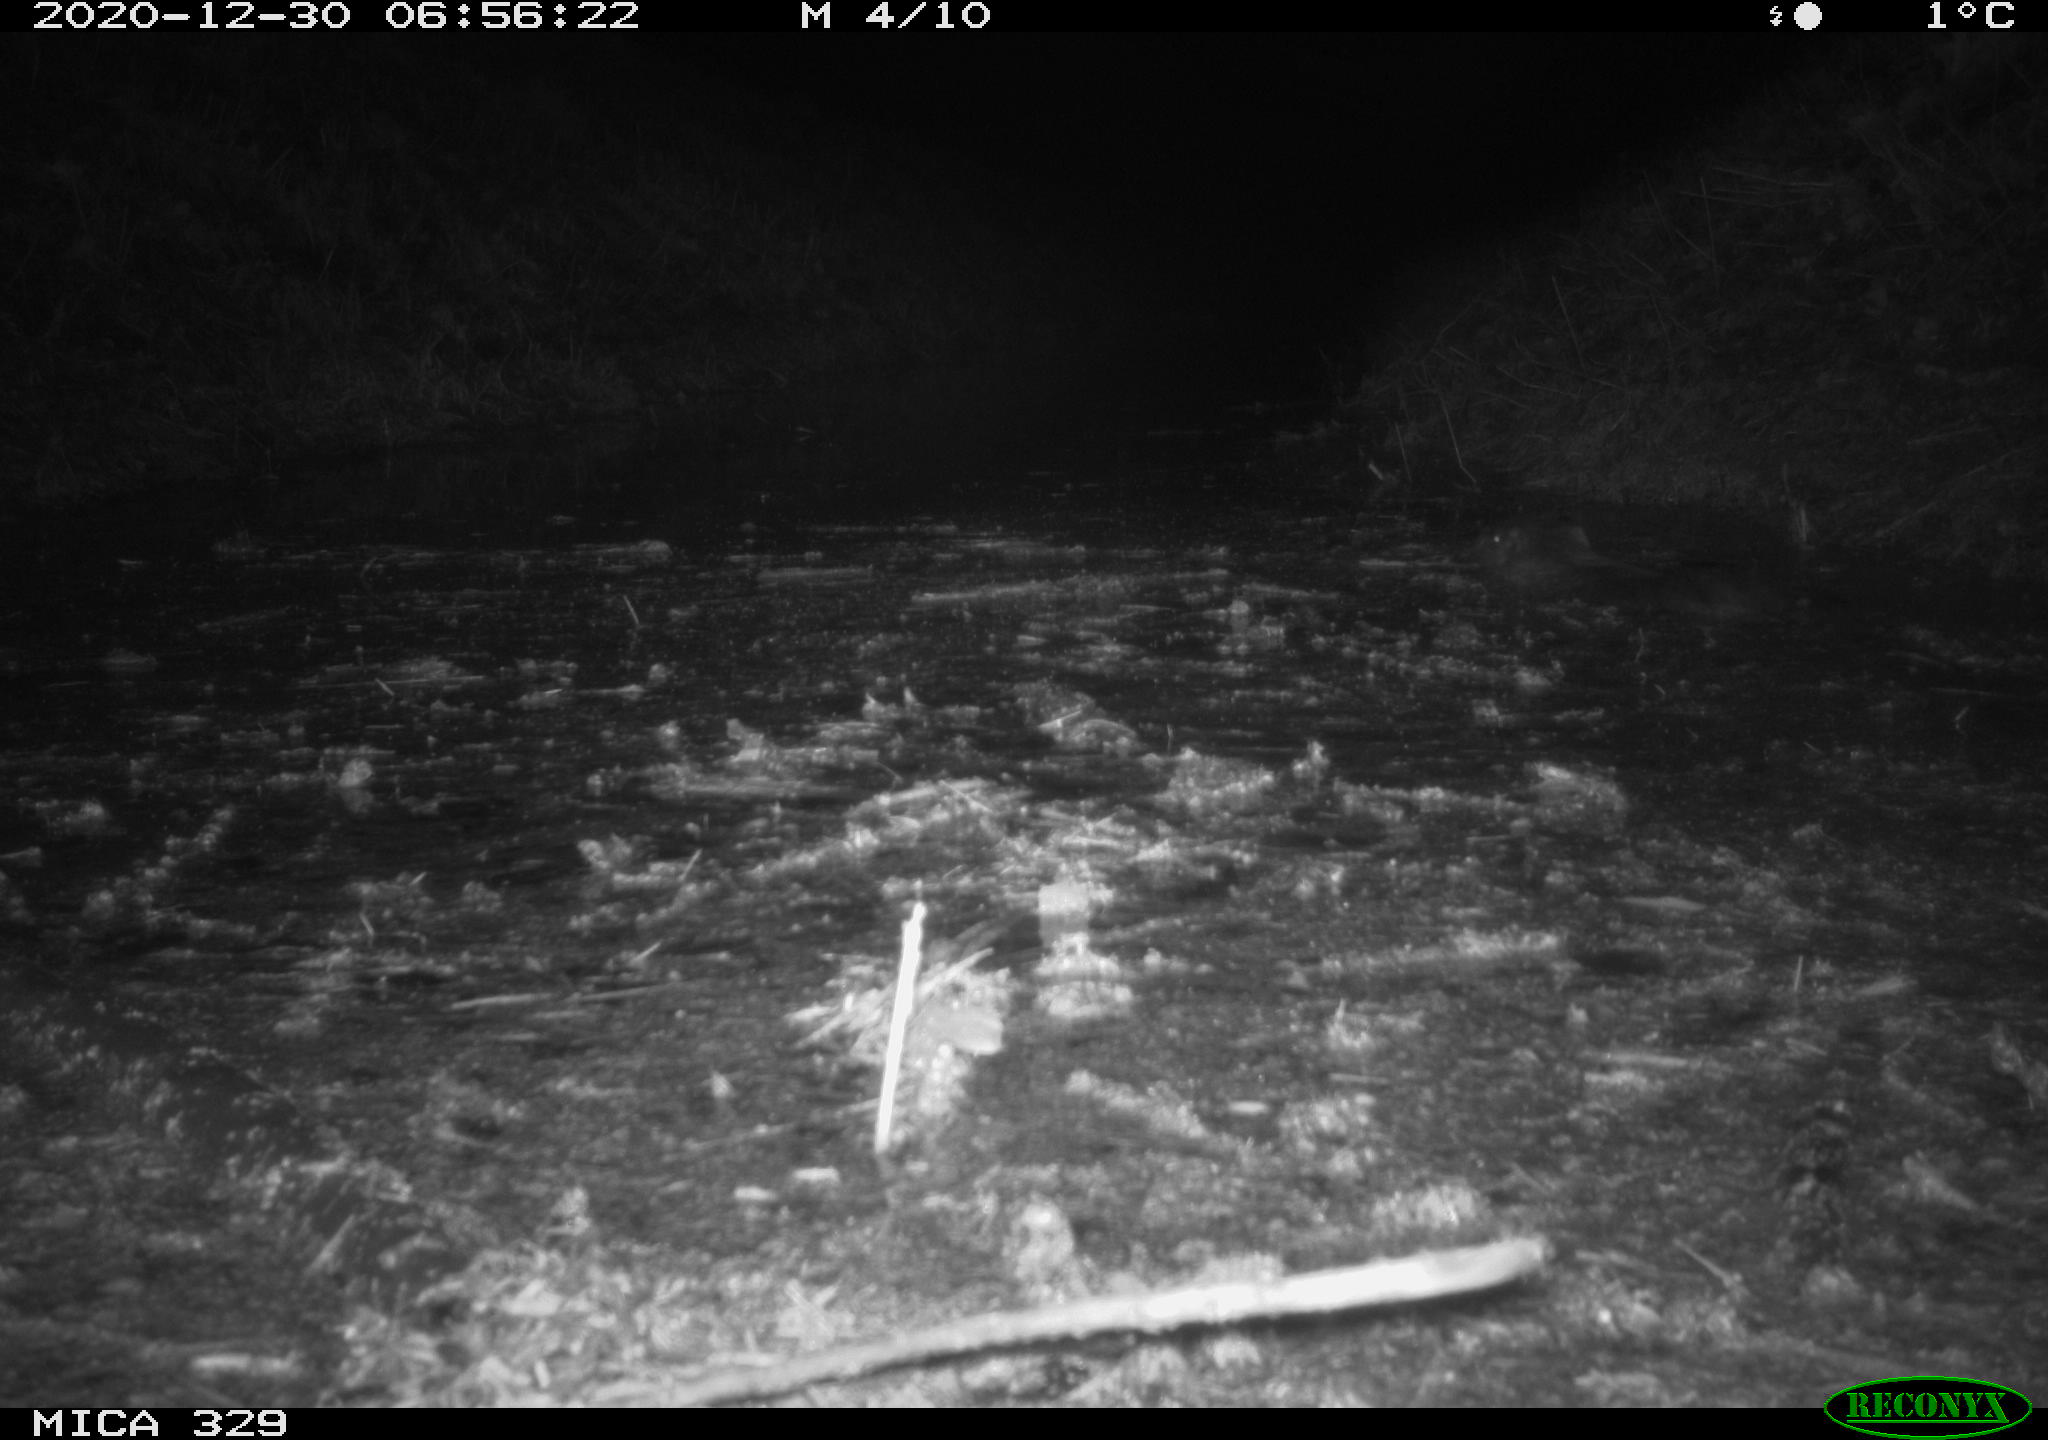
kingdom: Animalia
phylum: Chordata
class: Mammalia
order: Rodentia
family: Myocastoridae
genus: Myocastor
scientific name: Myocastor coypus
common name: Coypu
